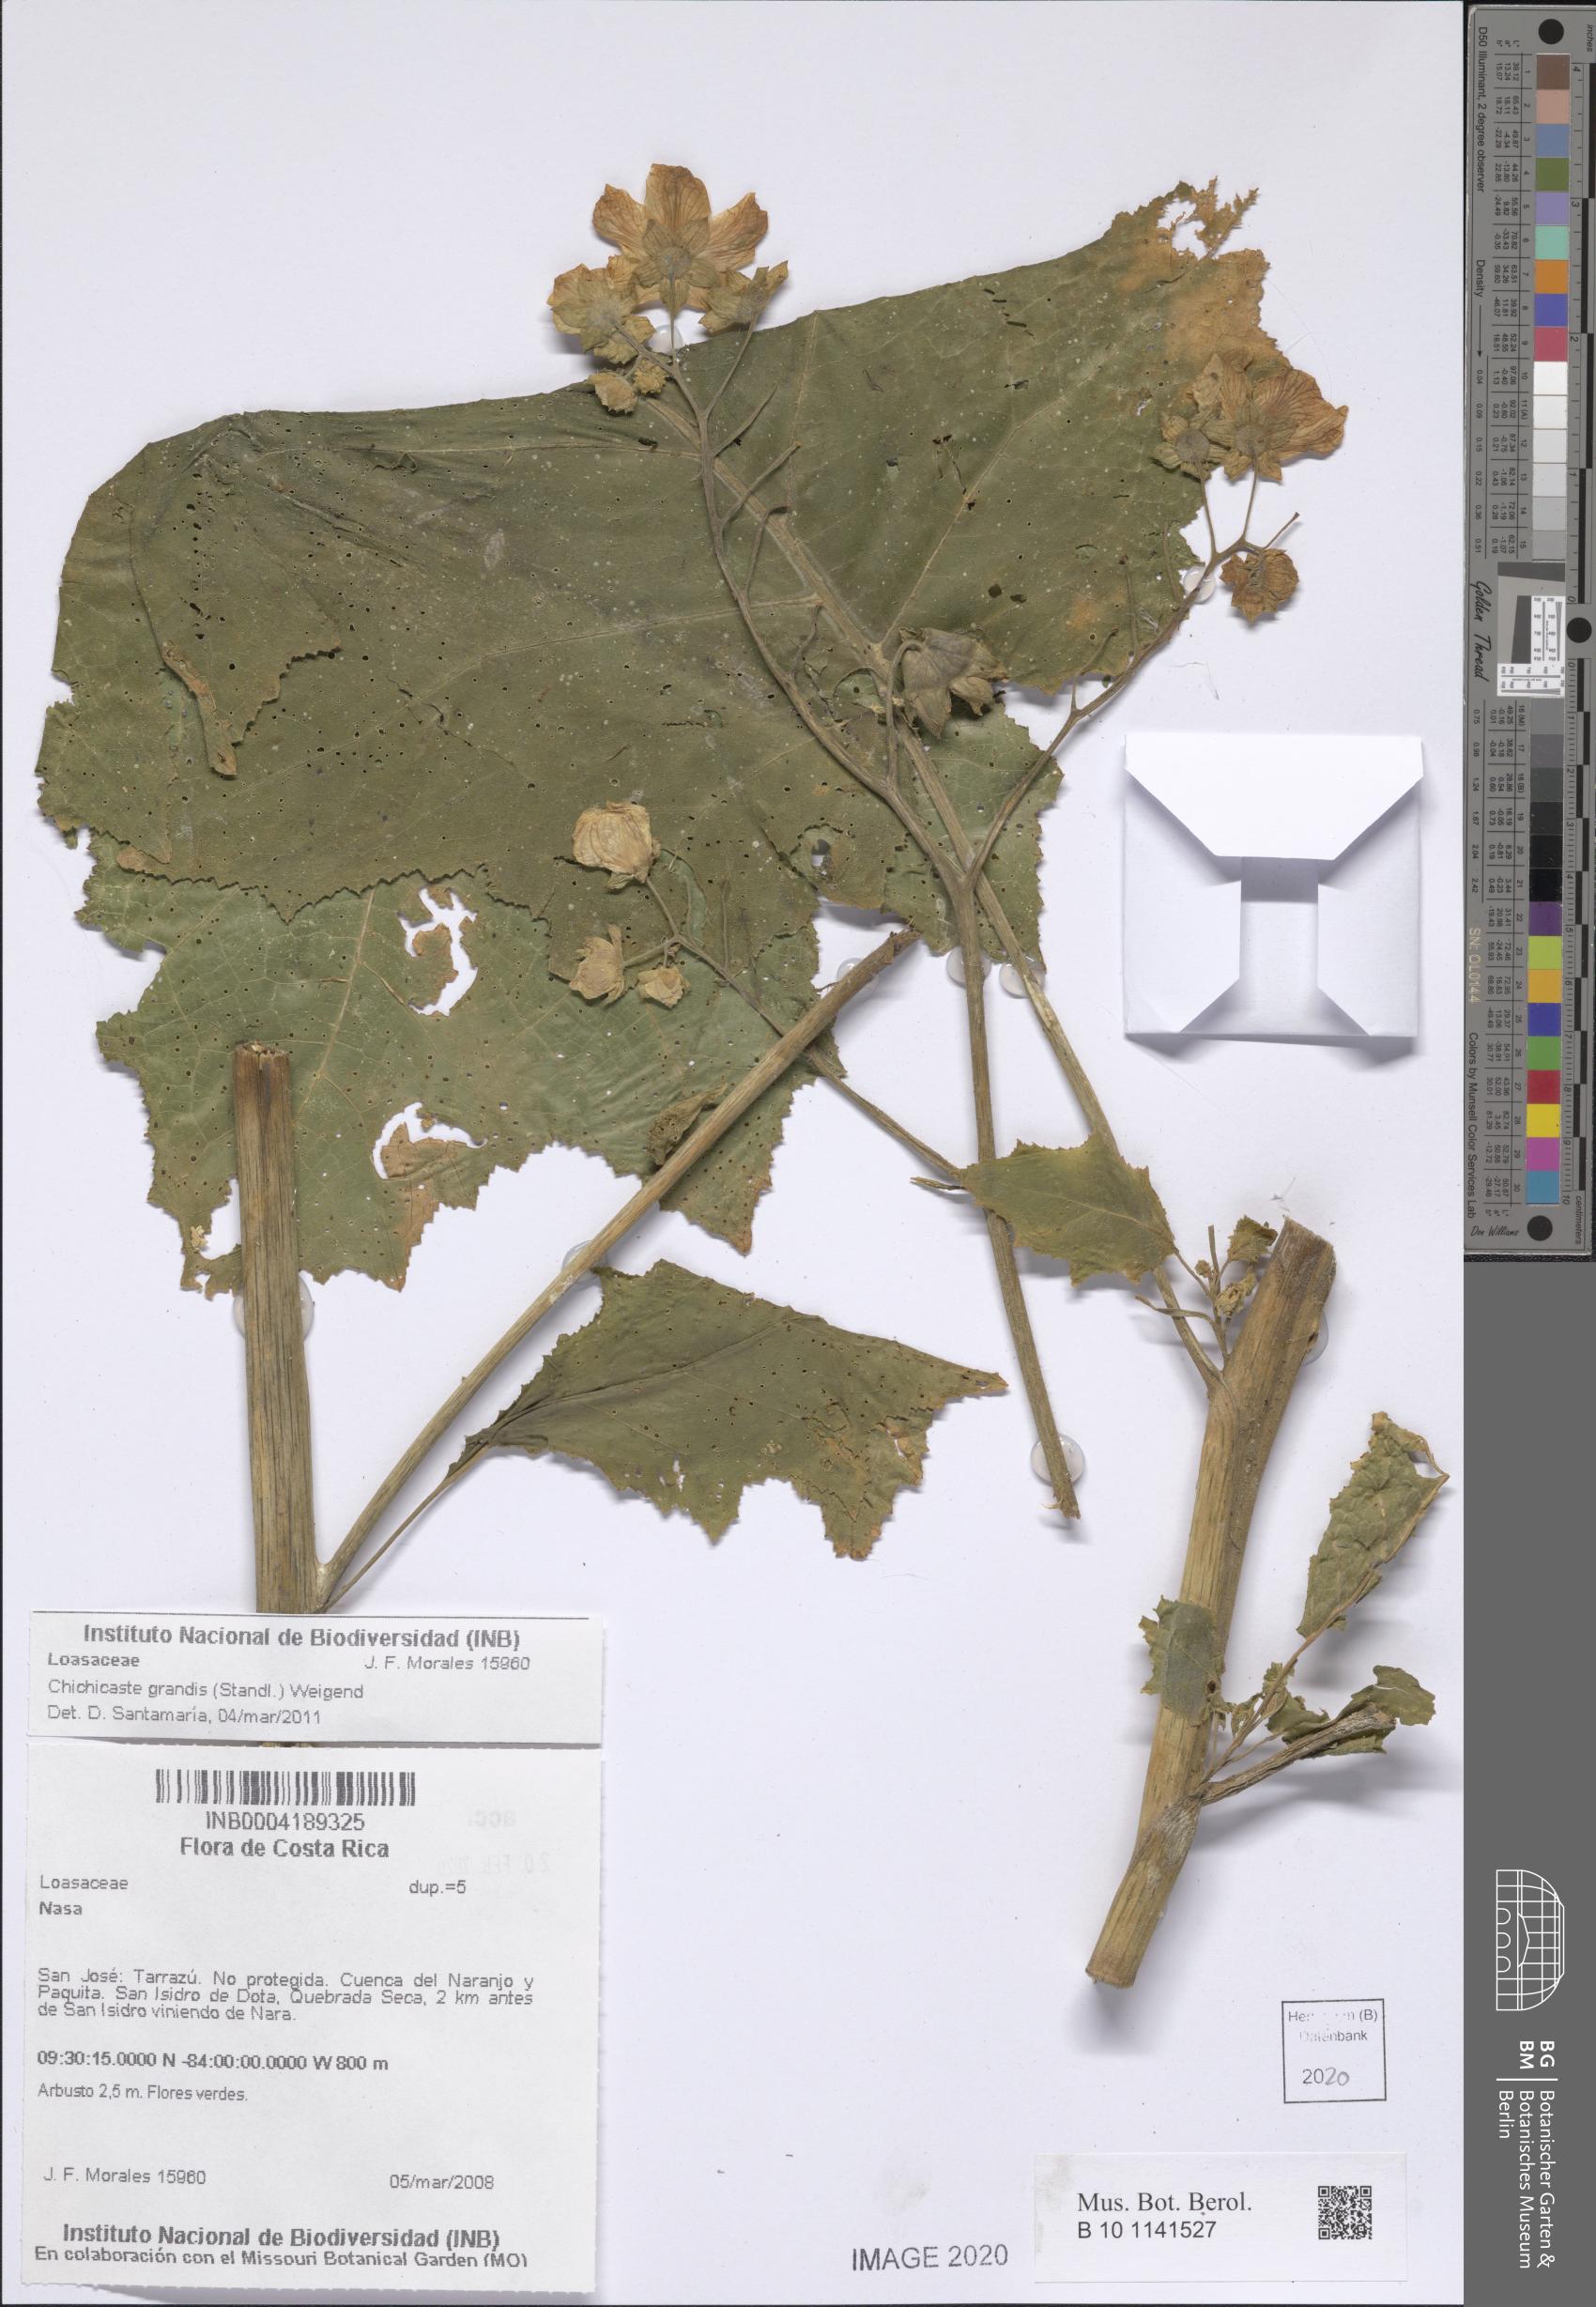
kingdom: Plantae
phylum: Tracheophyta
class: Magnoliopsida
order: Cornales
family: Loasaceae
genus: Aosa
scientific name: Aosa grandis
